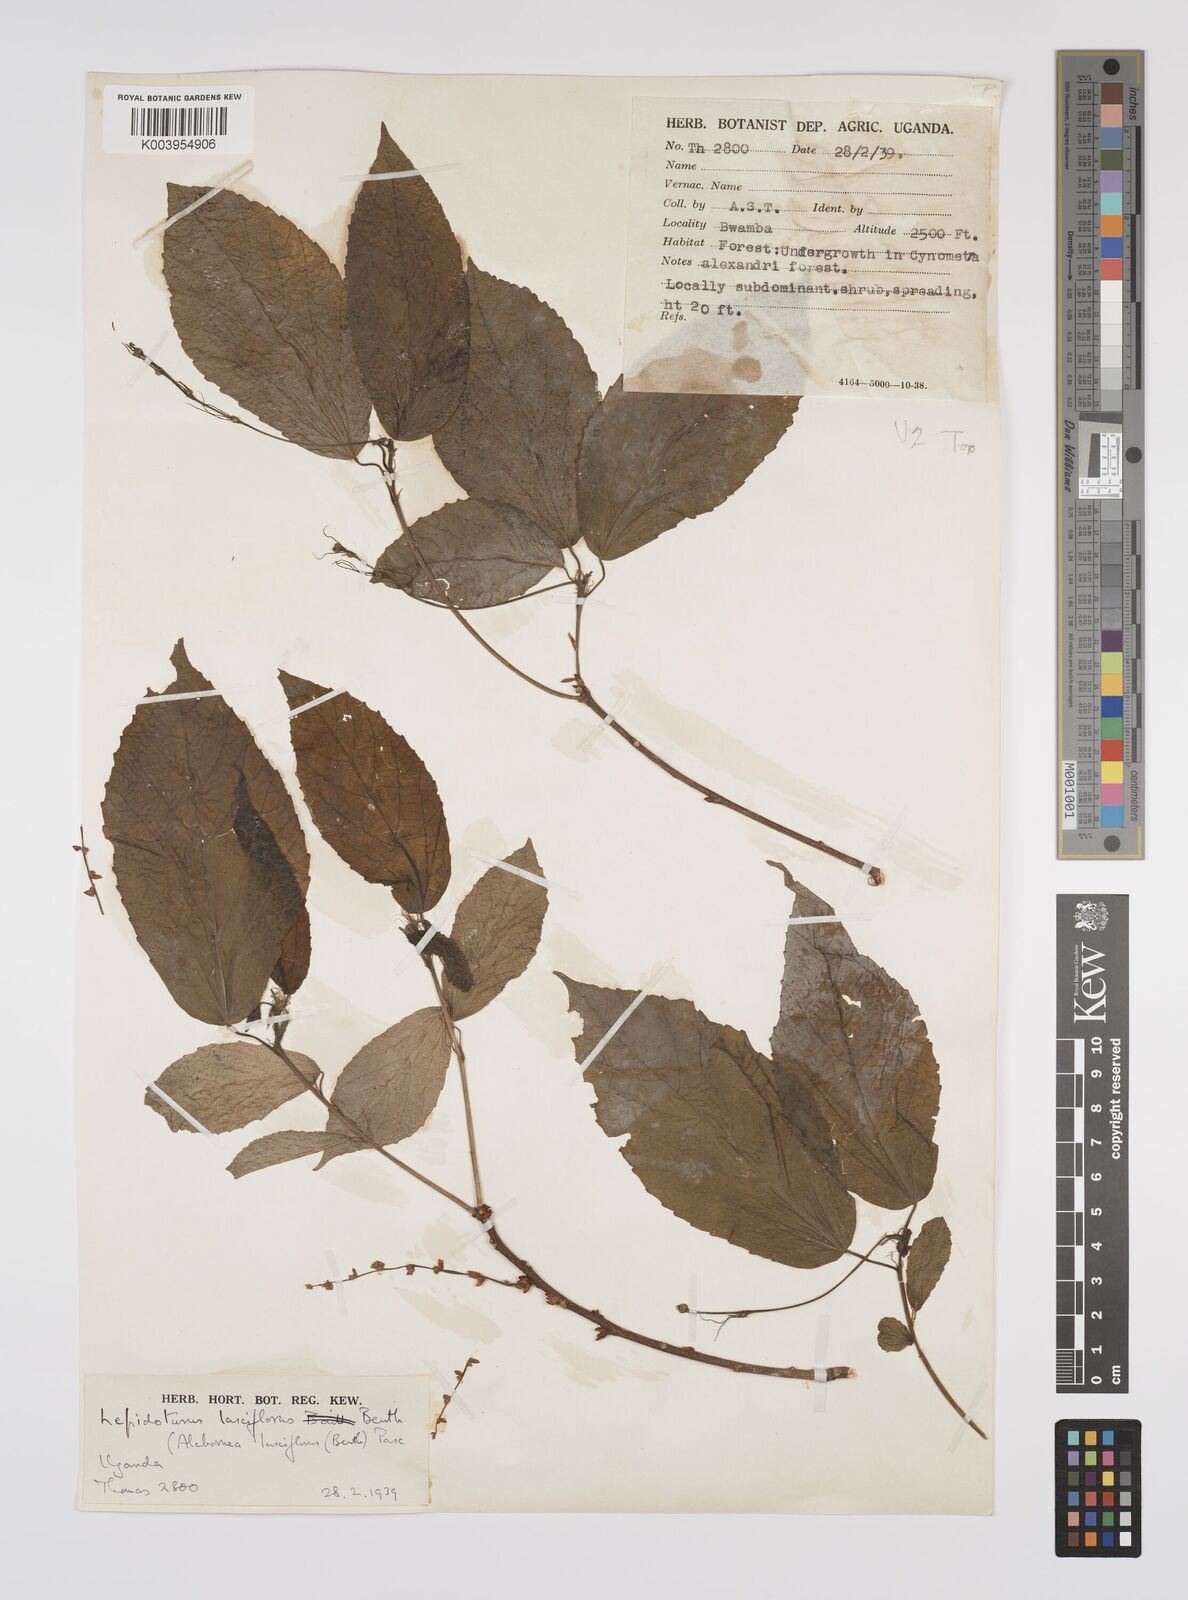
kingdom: Plantae
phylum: Tracheophyta
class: Magnoliopsida
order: Malpighiales
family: Euphorbiaceae
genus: Alchornea
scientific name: Alchornea laxiflora
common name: Lowveld bead-string
